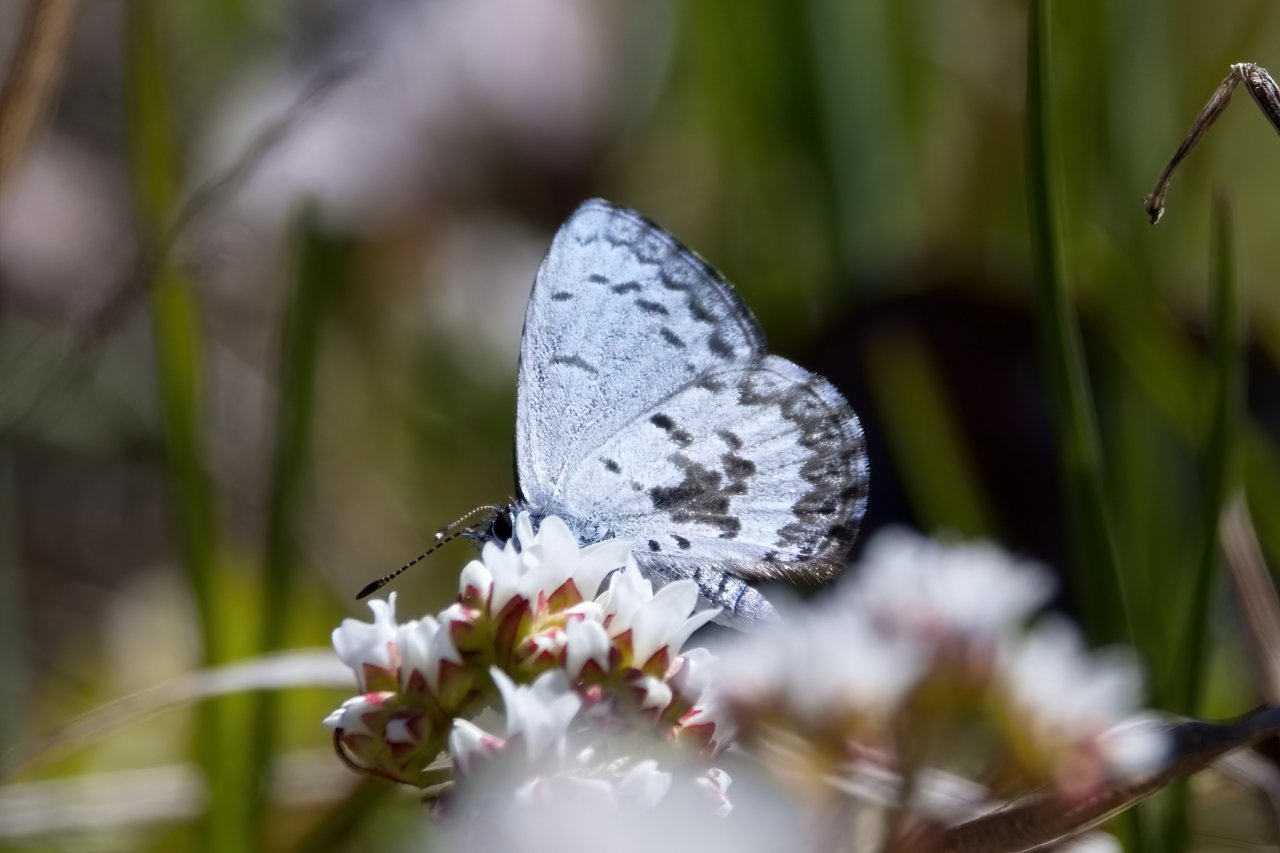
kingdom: Animalia
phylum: Arthropoda
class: Insecta
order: Lepidoptera
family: Lycaenidae
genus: Celastrina
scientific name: Celastrina lucia
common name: Northern Spring Azure
